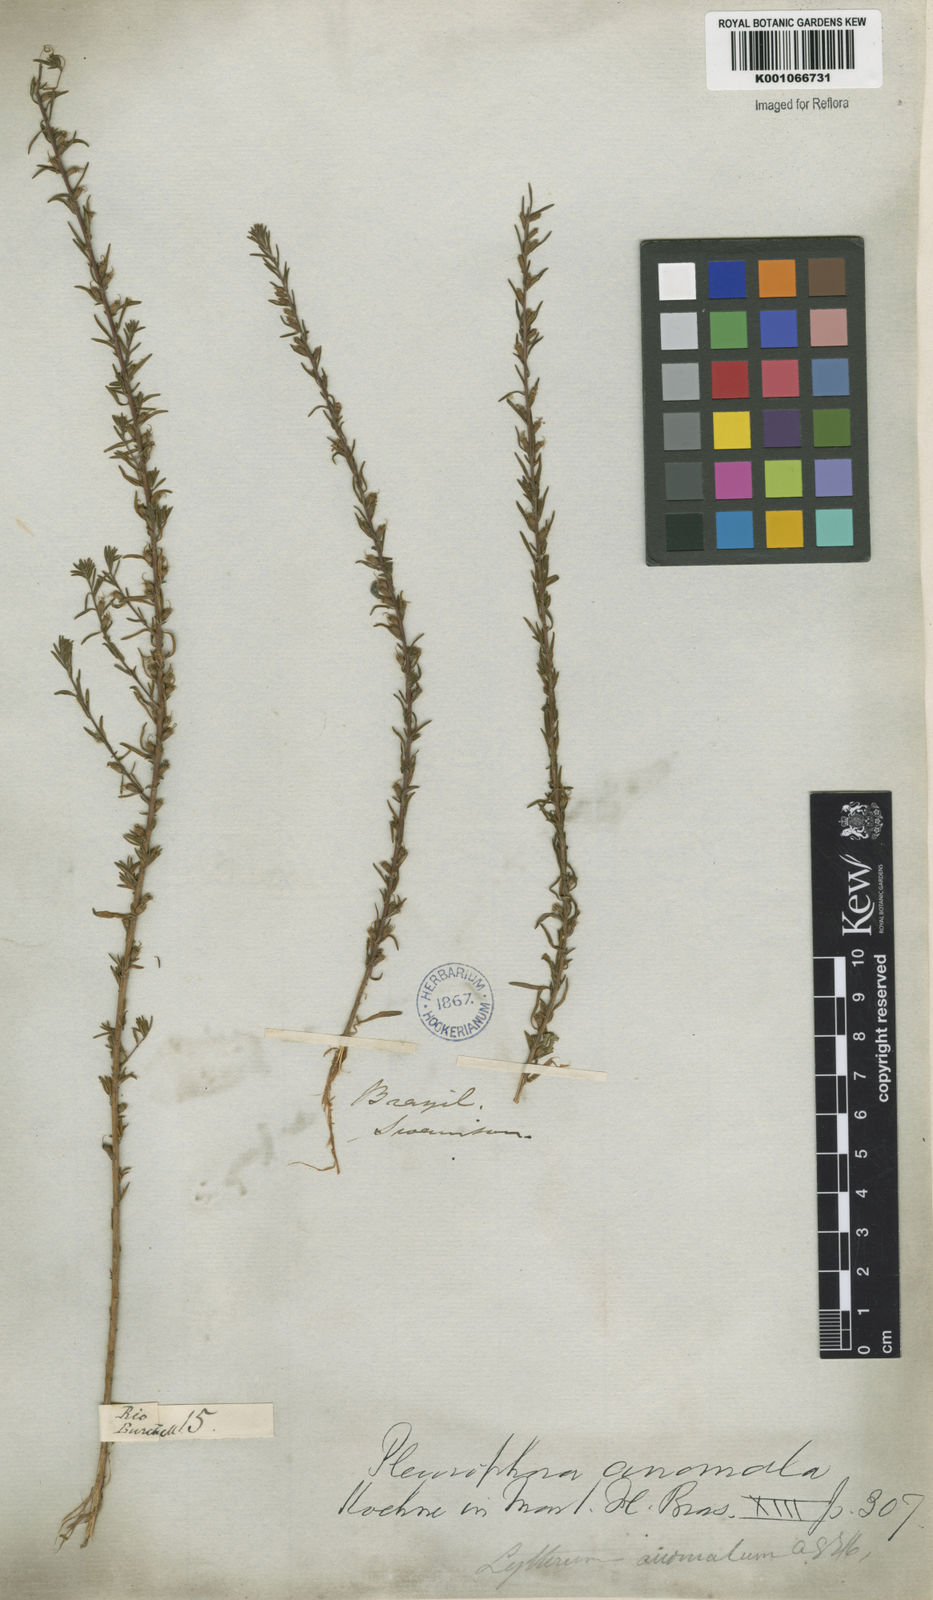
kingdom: Plantae
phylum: Tracheophyta
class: Magnoliopsida
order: Myrtales
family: Lythraceae
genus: Pleurophora
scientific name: Pleurophora anomala
